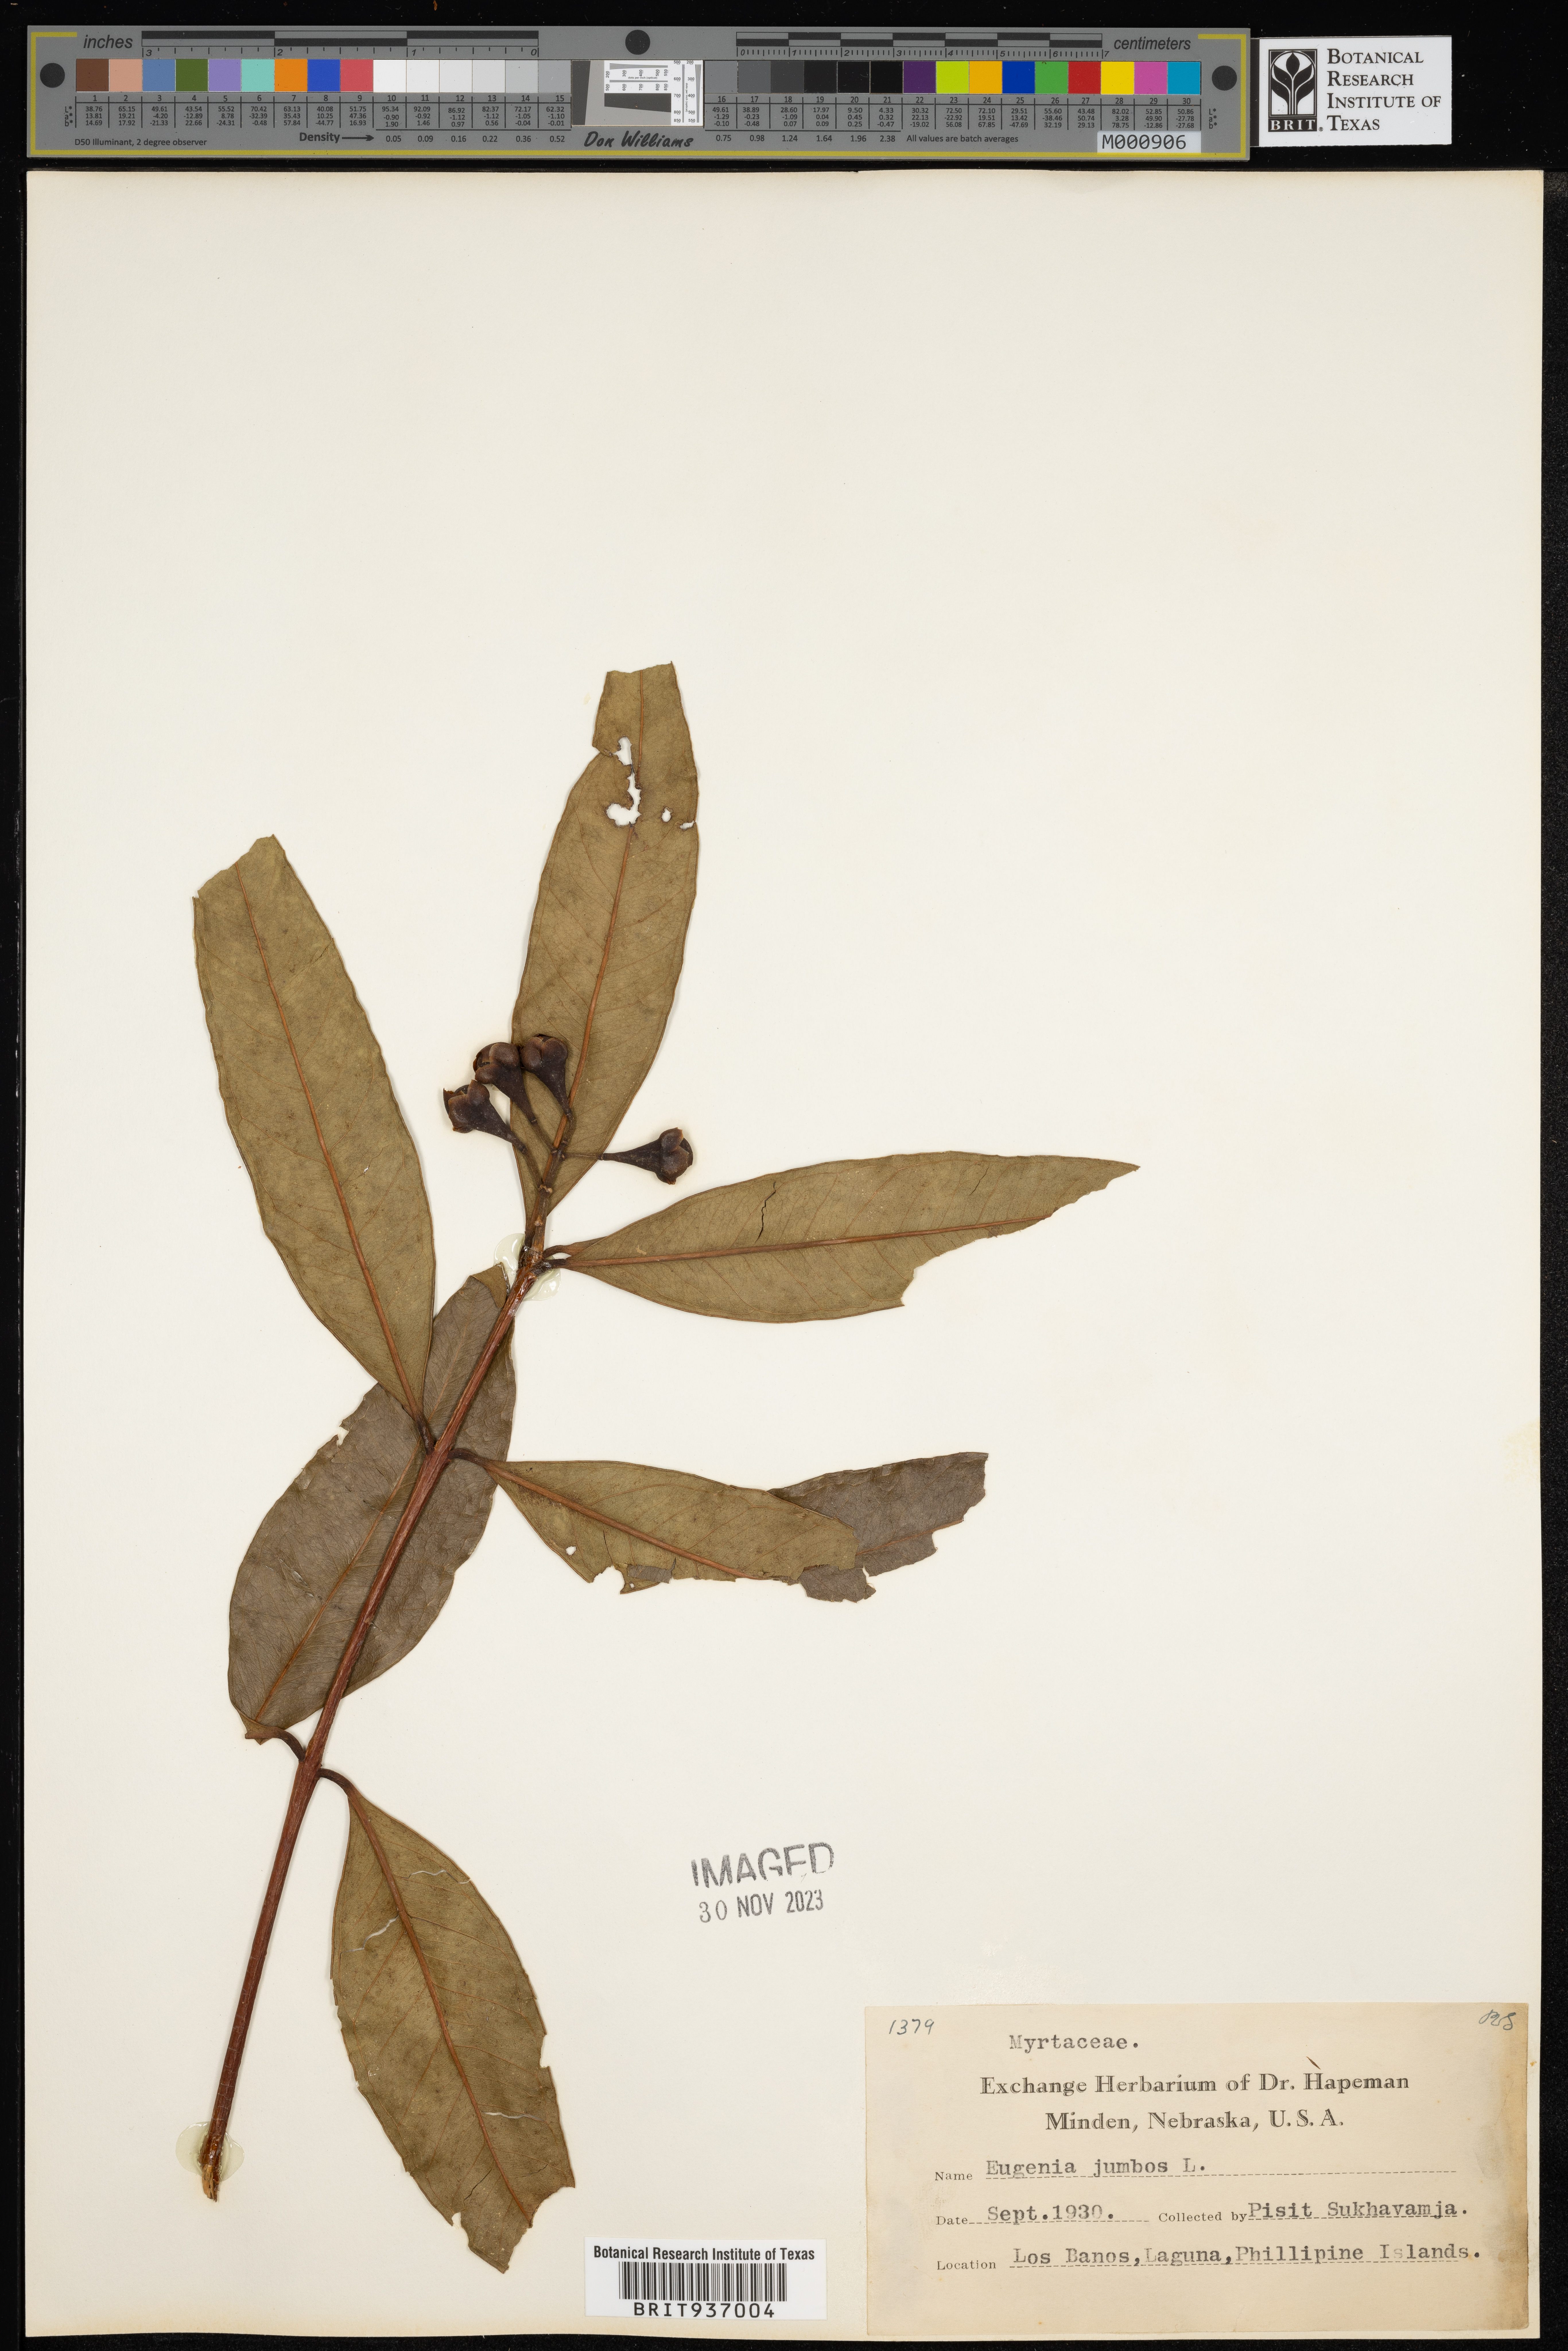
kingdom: Plantae
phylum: Tracheophyta
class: Magnoliopsida
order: Myrtales
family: Myrtaceae
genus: Eugenia
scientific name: Eugenia
